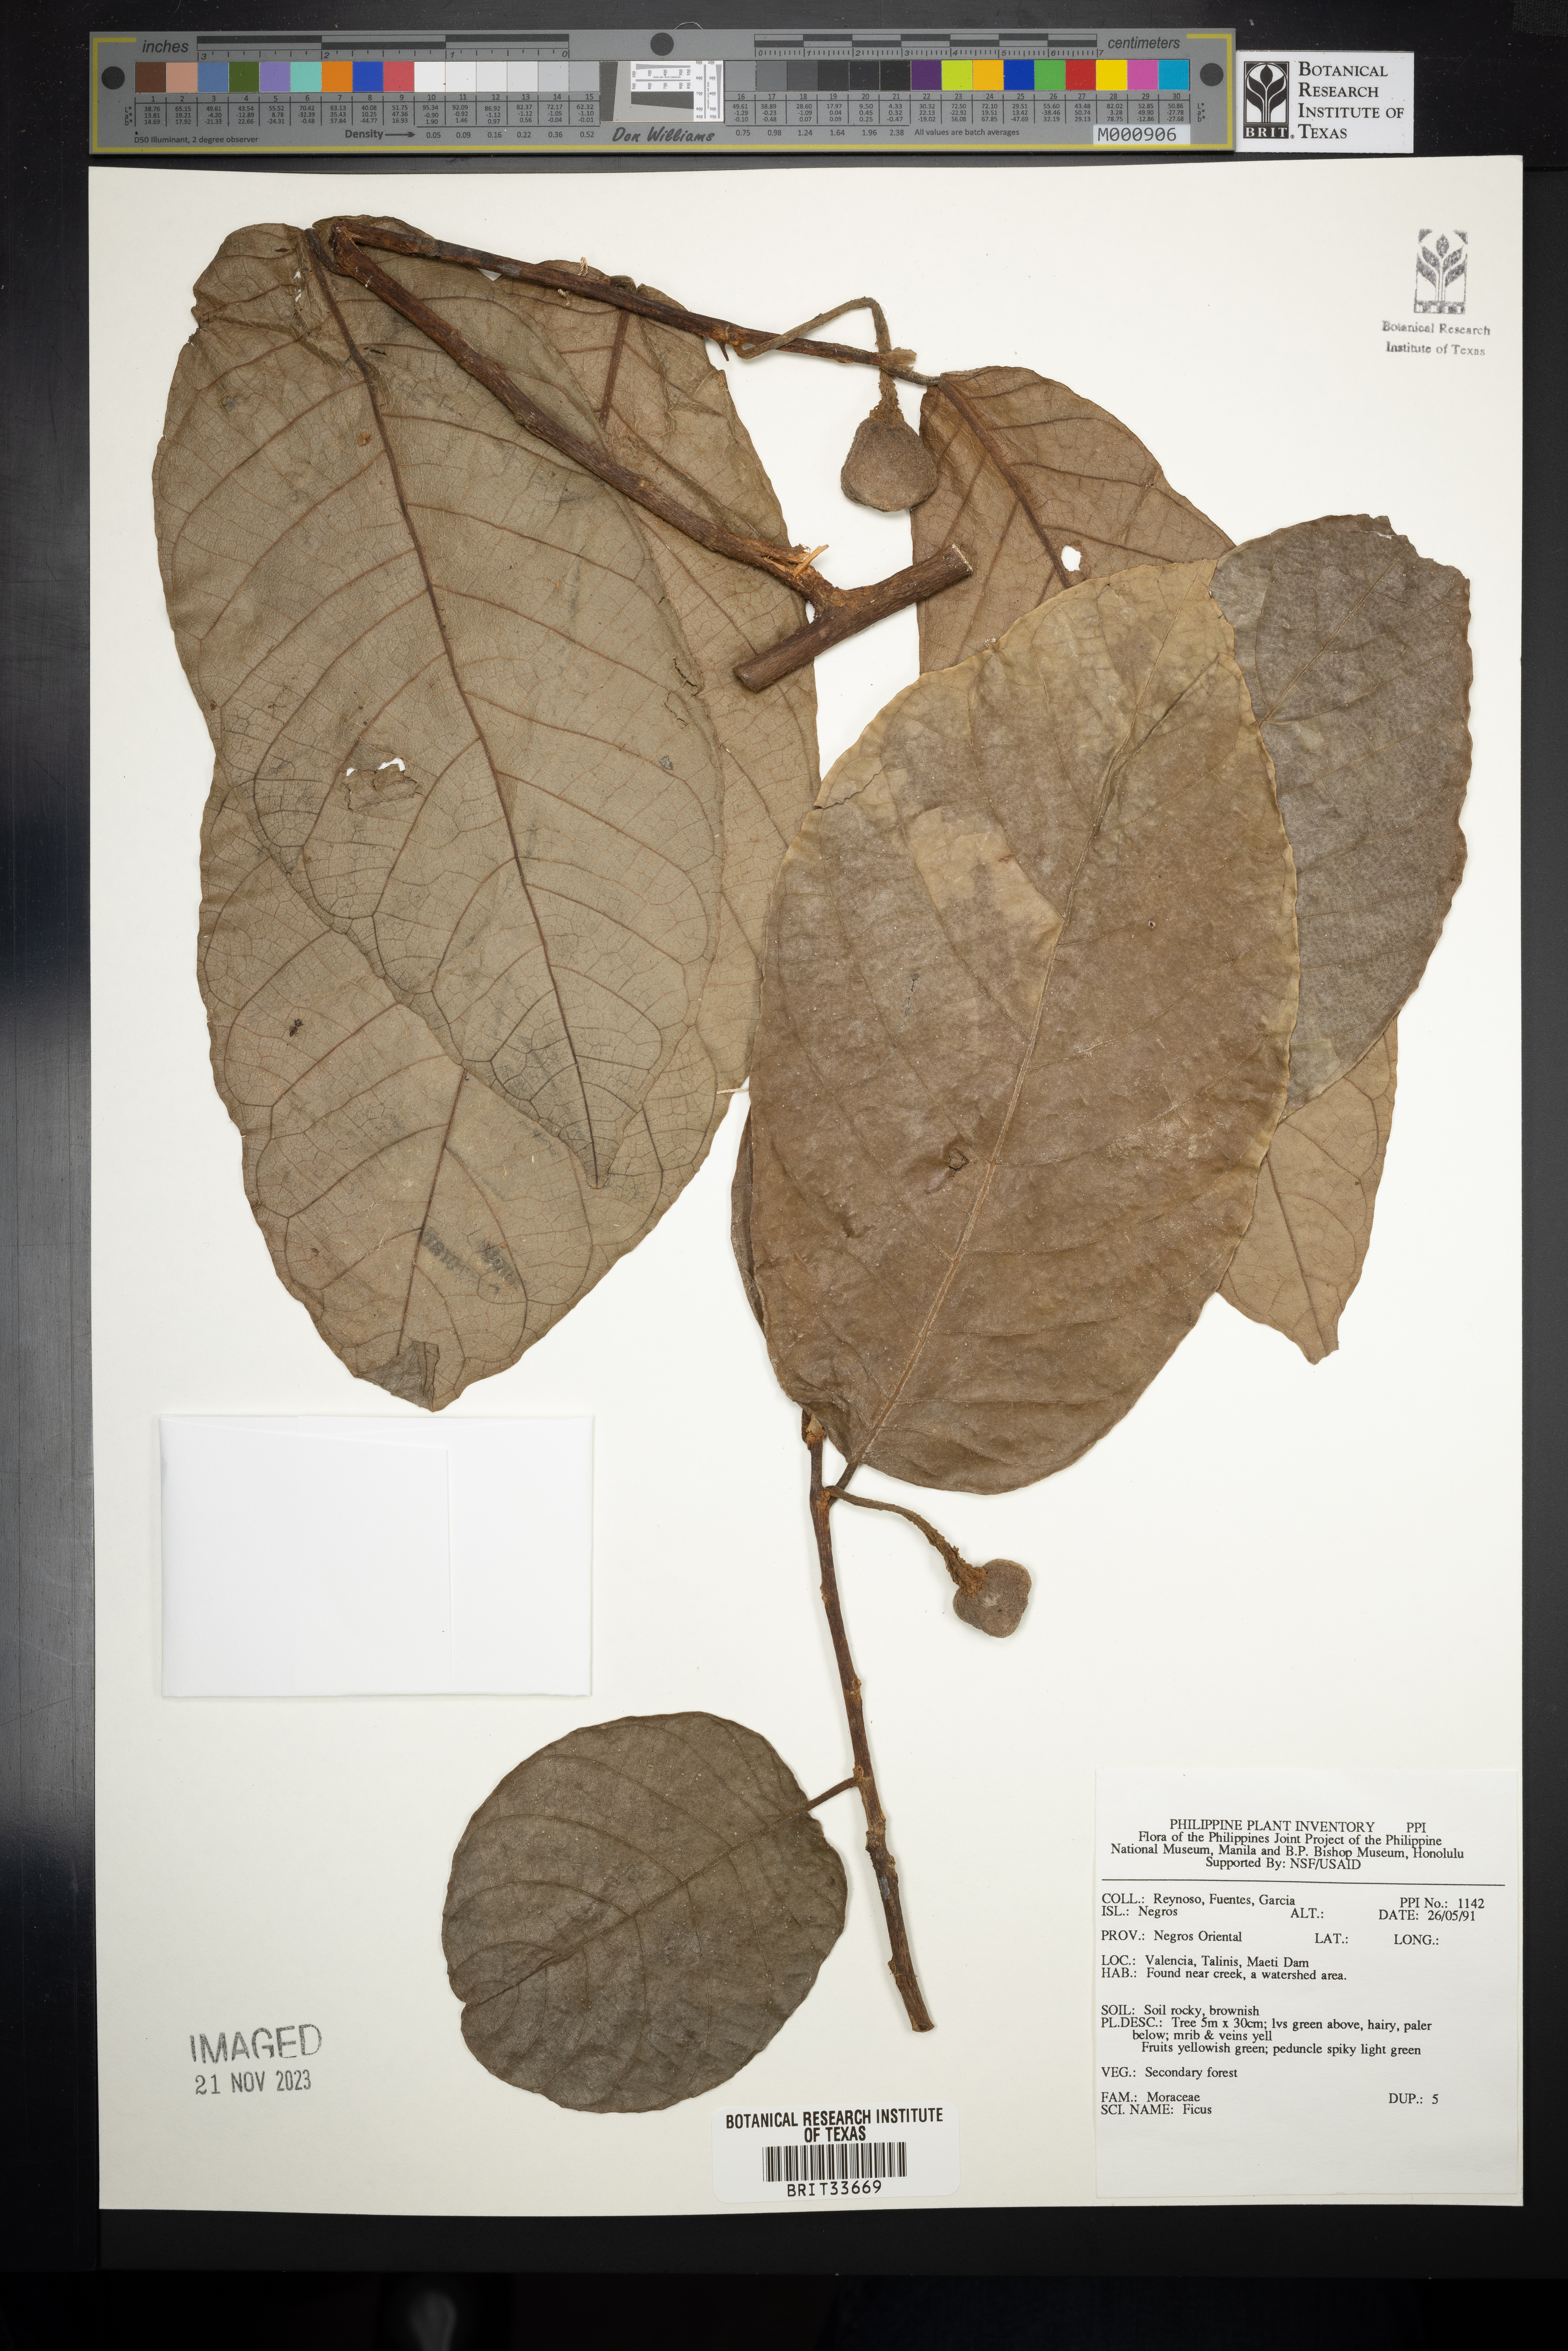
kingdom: Plantae
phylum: Tracheophyta
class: Magnoliopsida
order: Rosales
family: Moraceae
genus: Ficus
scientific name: Ficus
